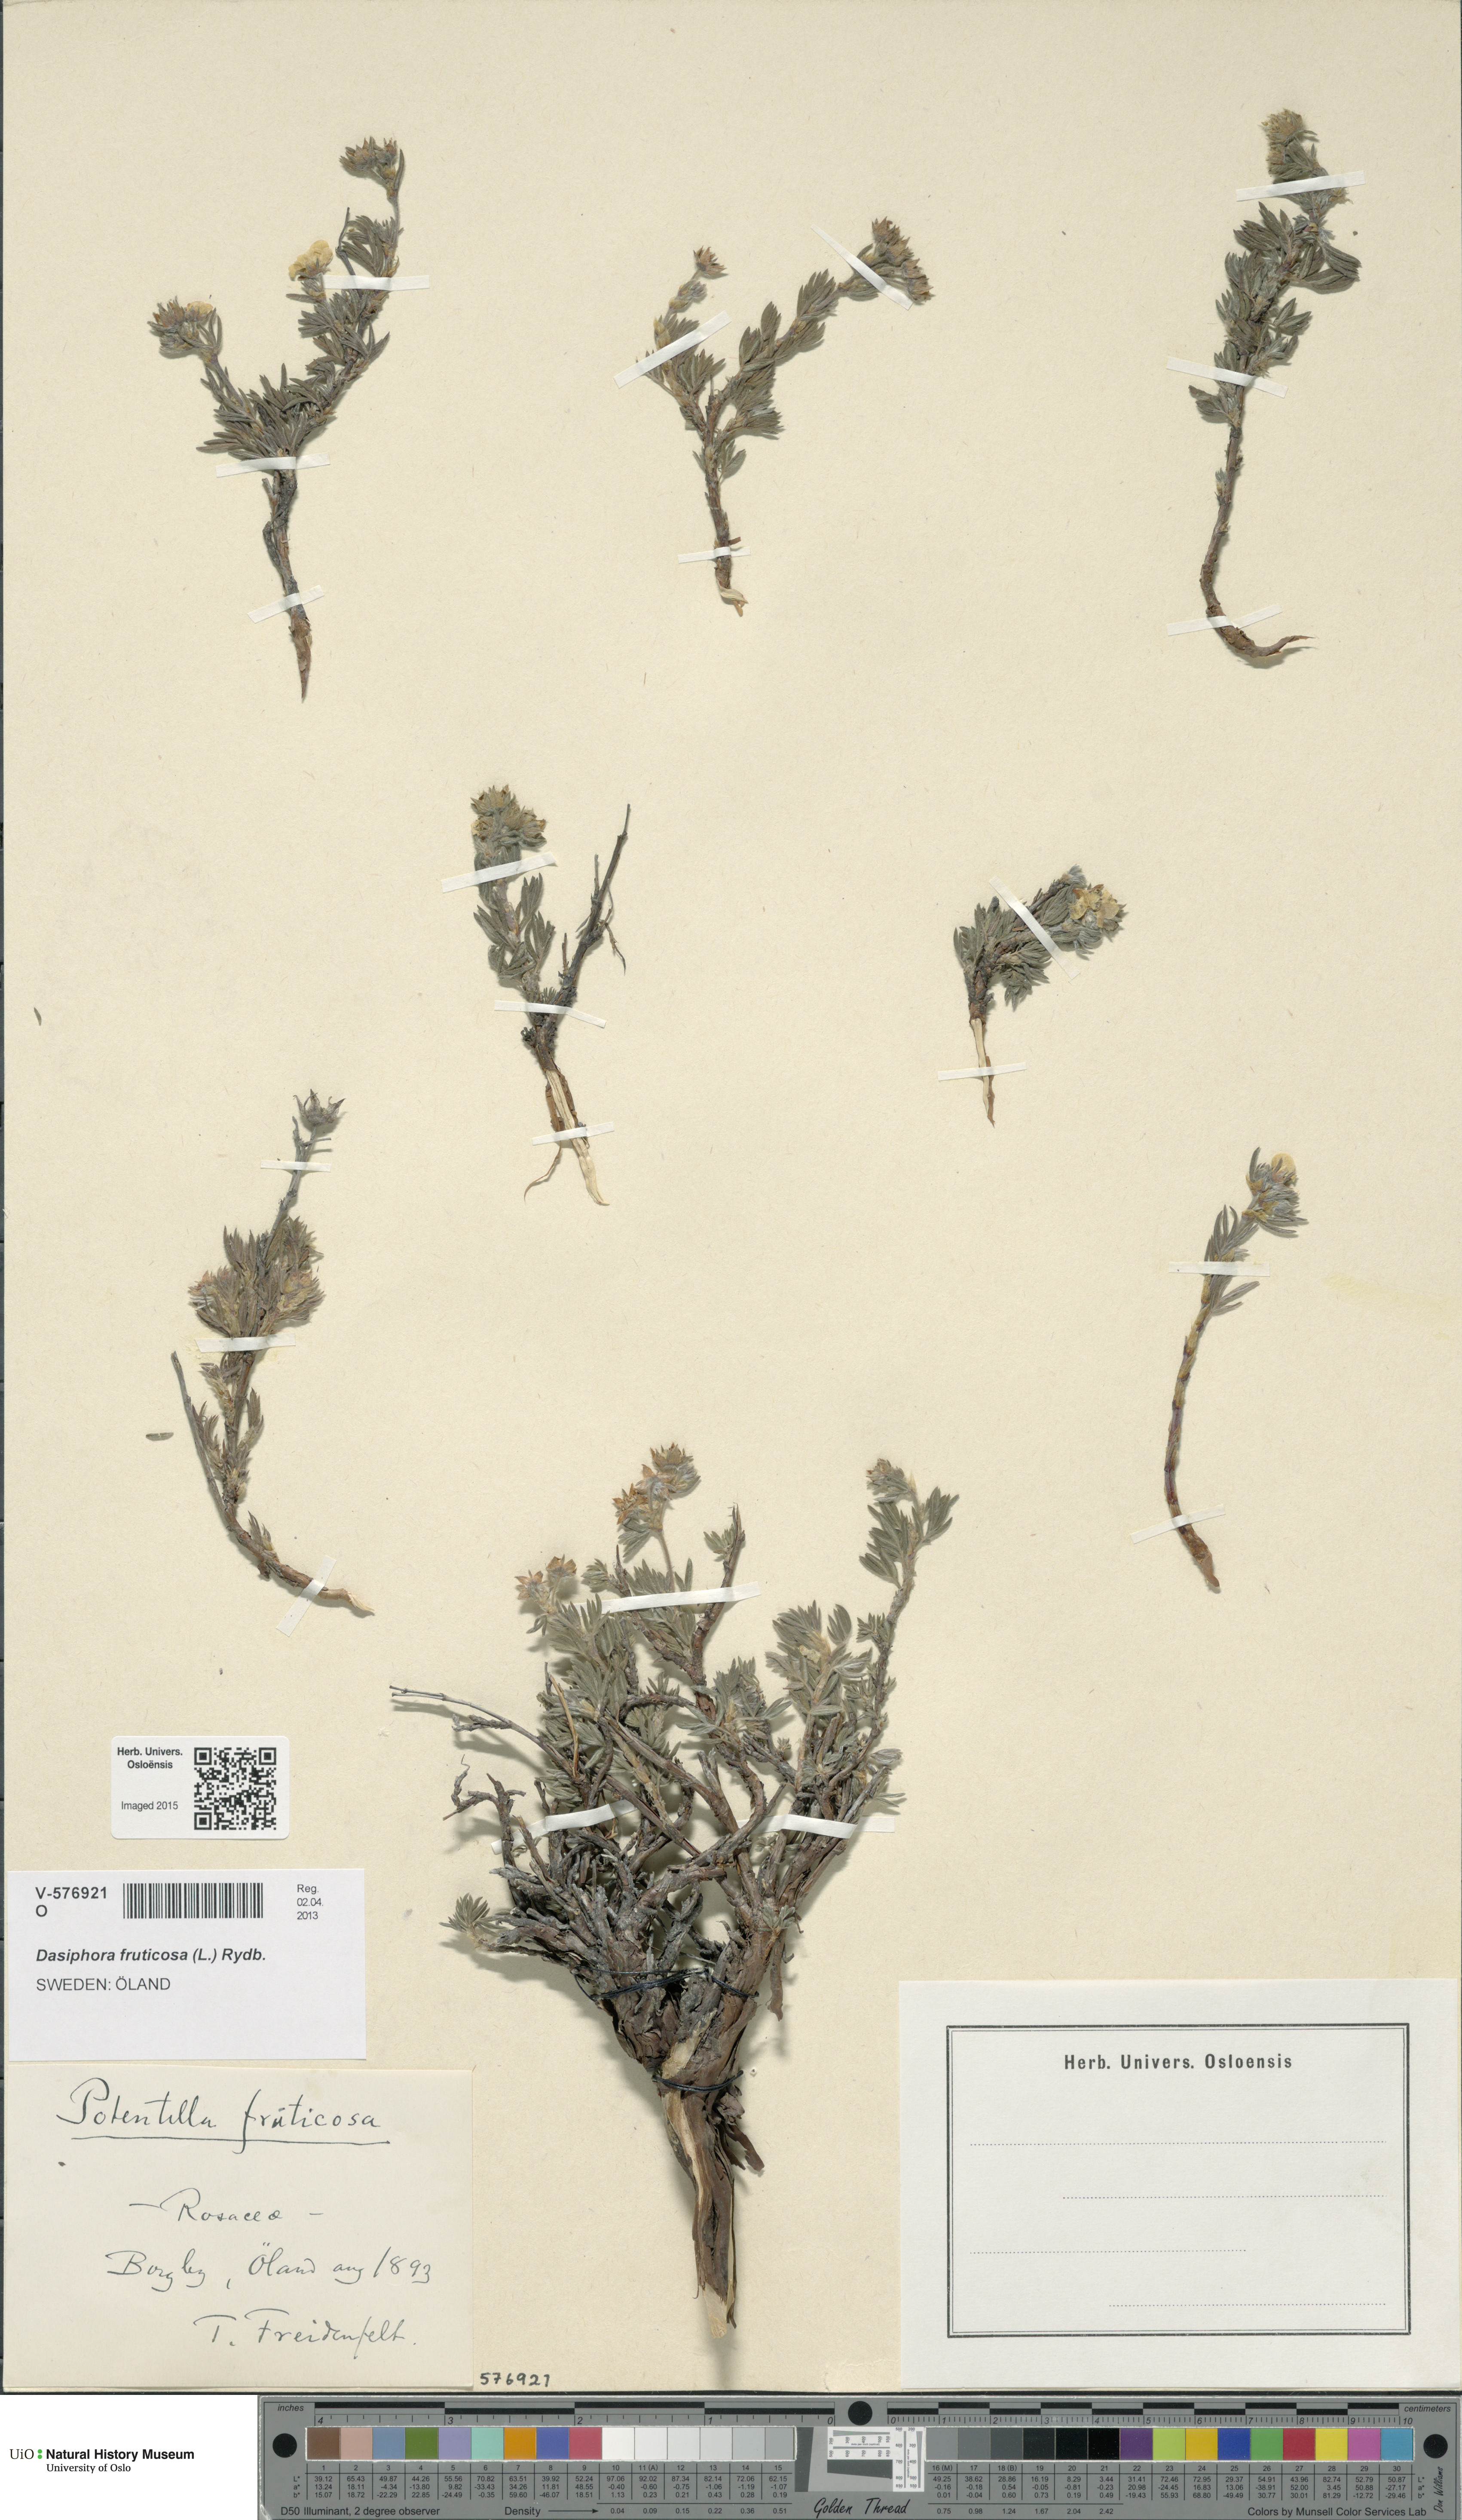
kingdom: Plantae
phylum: Tracheophyta
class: Magnoliopsida
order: Rosales
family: Rosaceae
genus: Dasiphora
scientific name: Dasiphora fruticosa
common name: Shrubby cinquefoil
